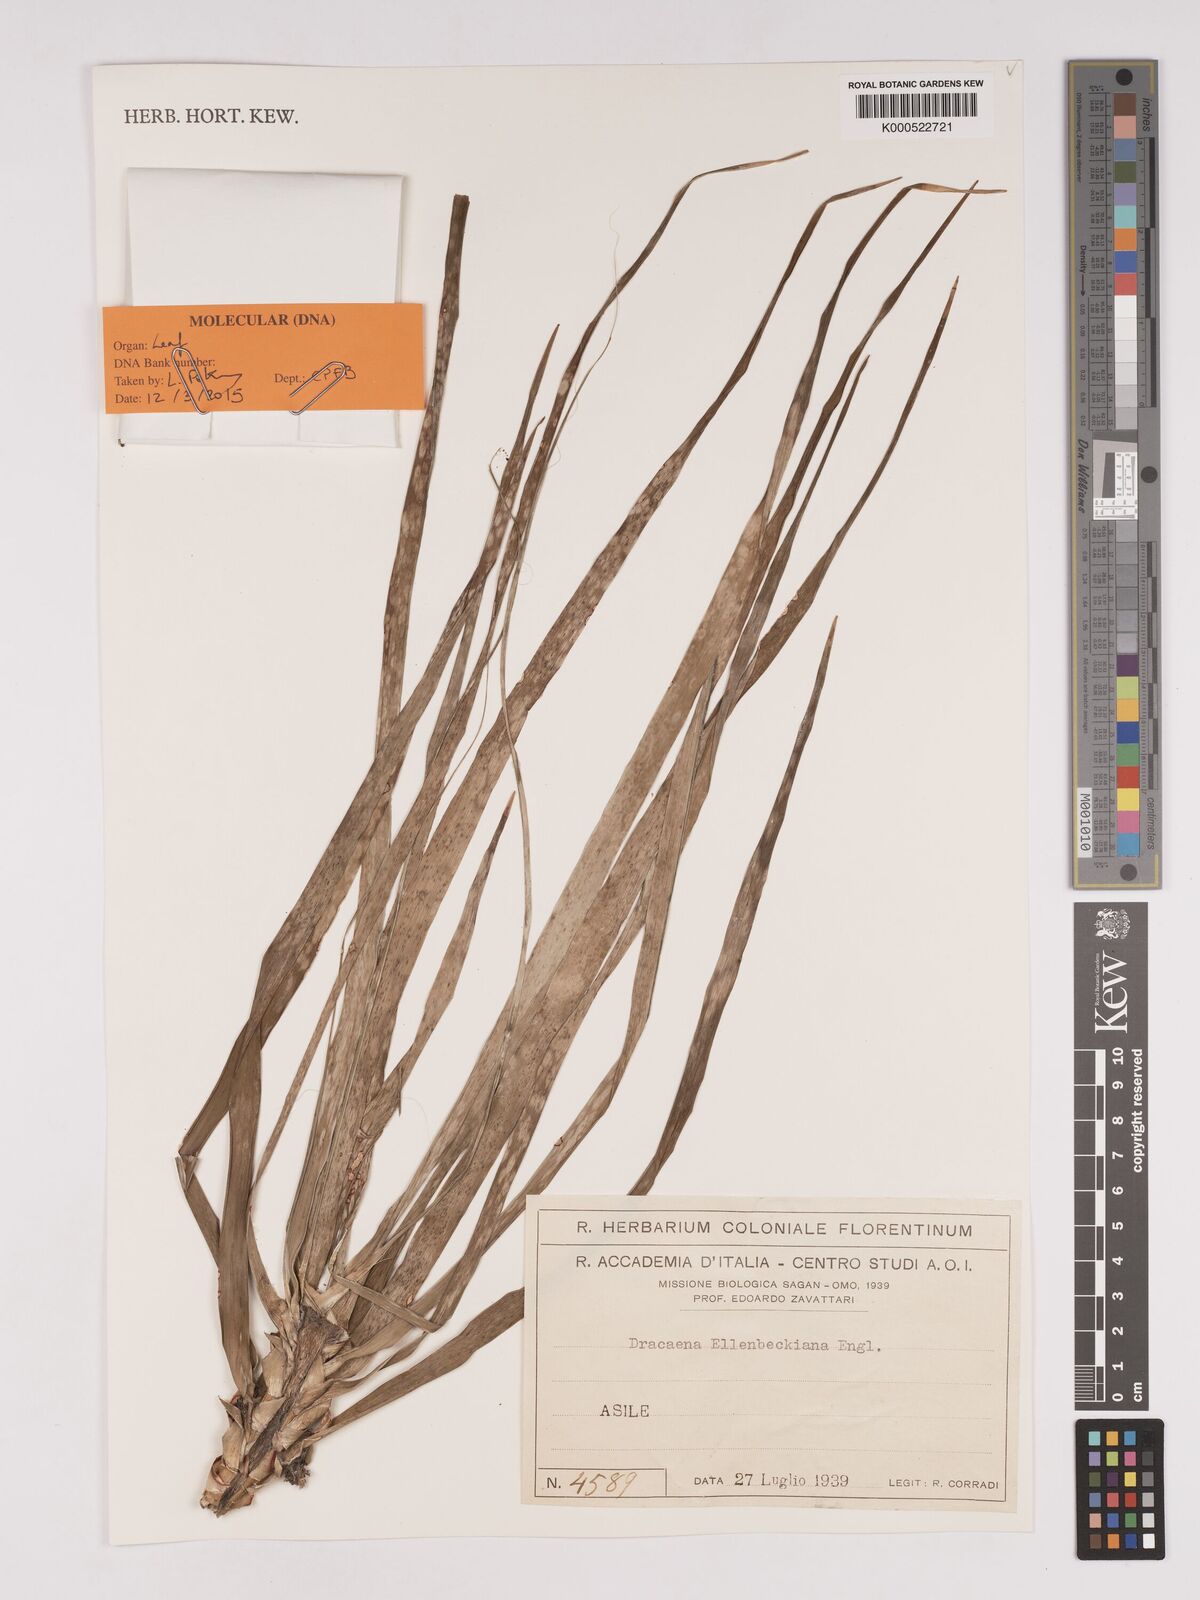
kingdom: Plantae
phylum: Tracheophyta
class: Liliopsida
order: Asparagales
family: Asparagaceae
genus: Dracaena
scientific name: Dracaena elliptica
